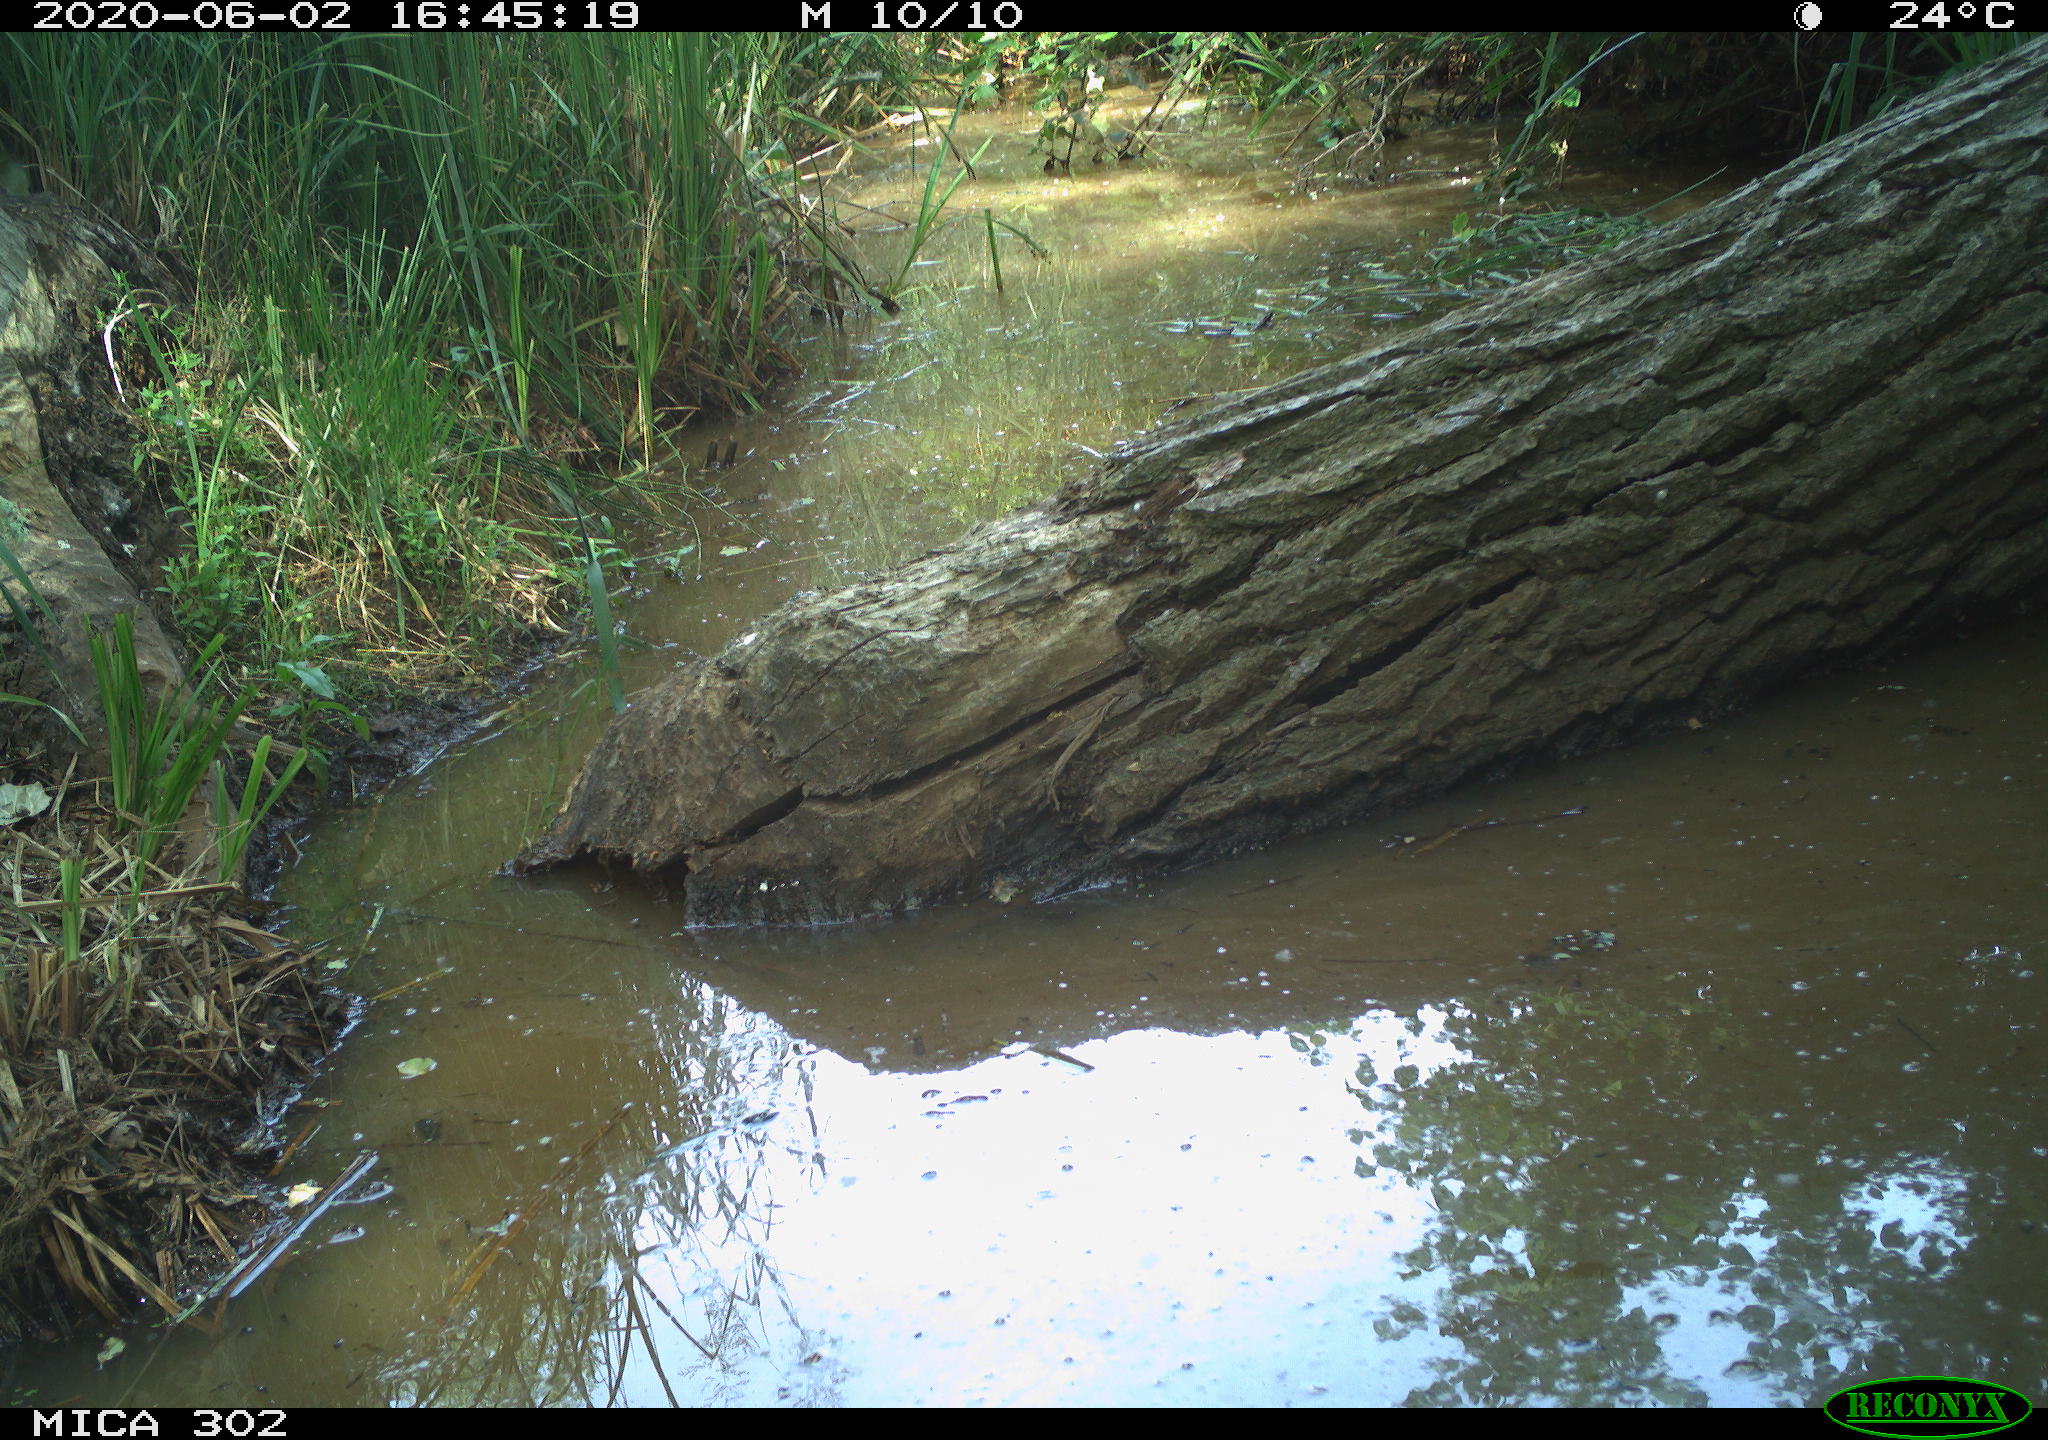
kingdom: Animalia
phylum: Chordata
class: Aves
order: Passeriformes
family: Turdidae
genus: Turdus
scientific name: Turdus philomelos
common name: Song thrush
